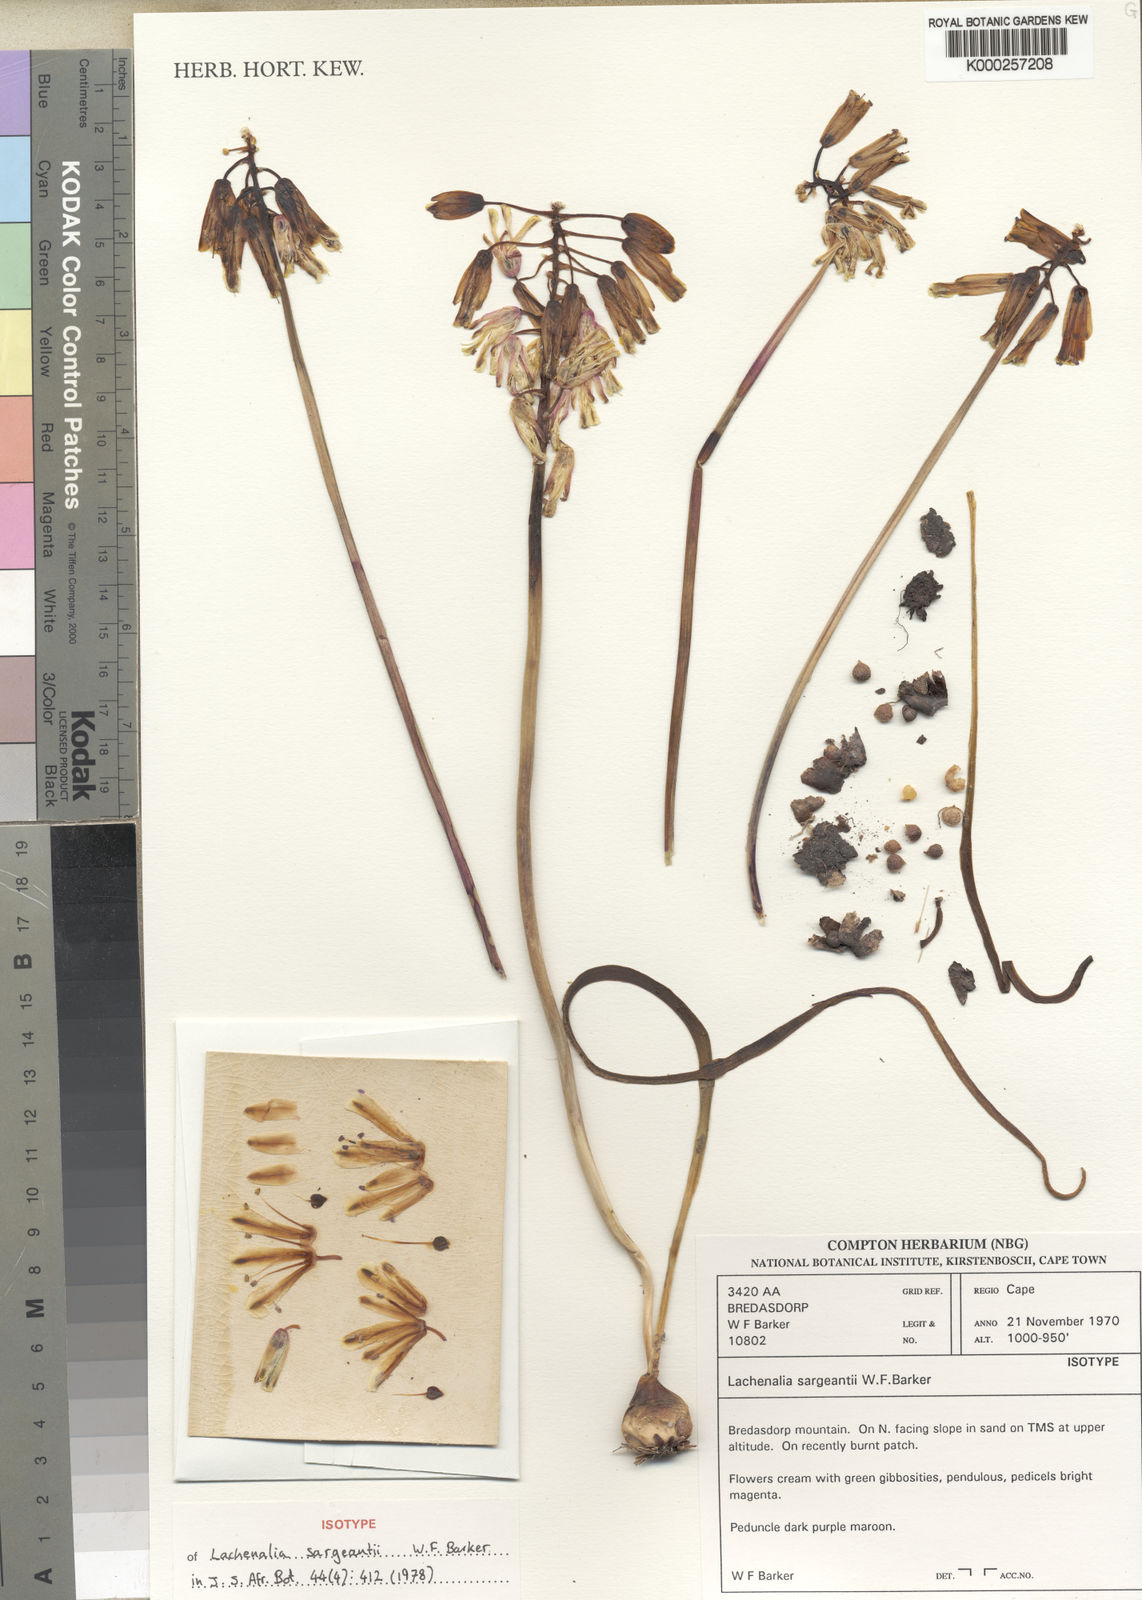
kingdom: Plantae
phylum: Tracheophyta
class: Liliopsida
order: Asparagales
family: Asparagaceae
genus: Lachenalia
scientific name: Lachenalia sargeantii
